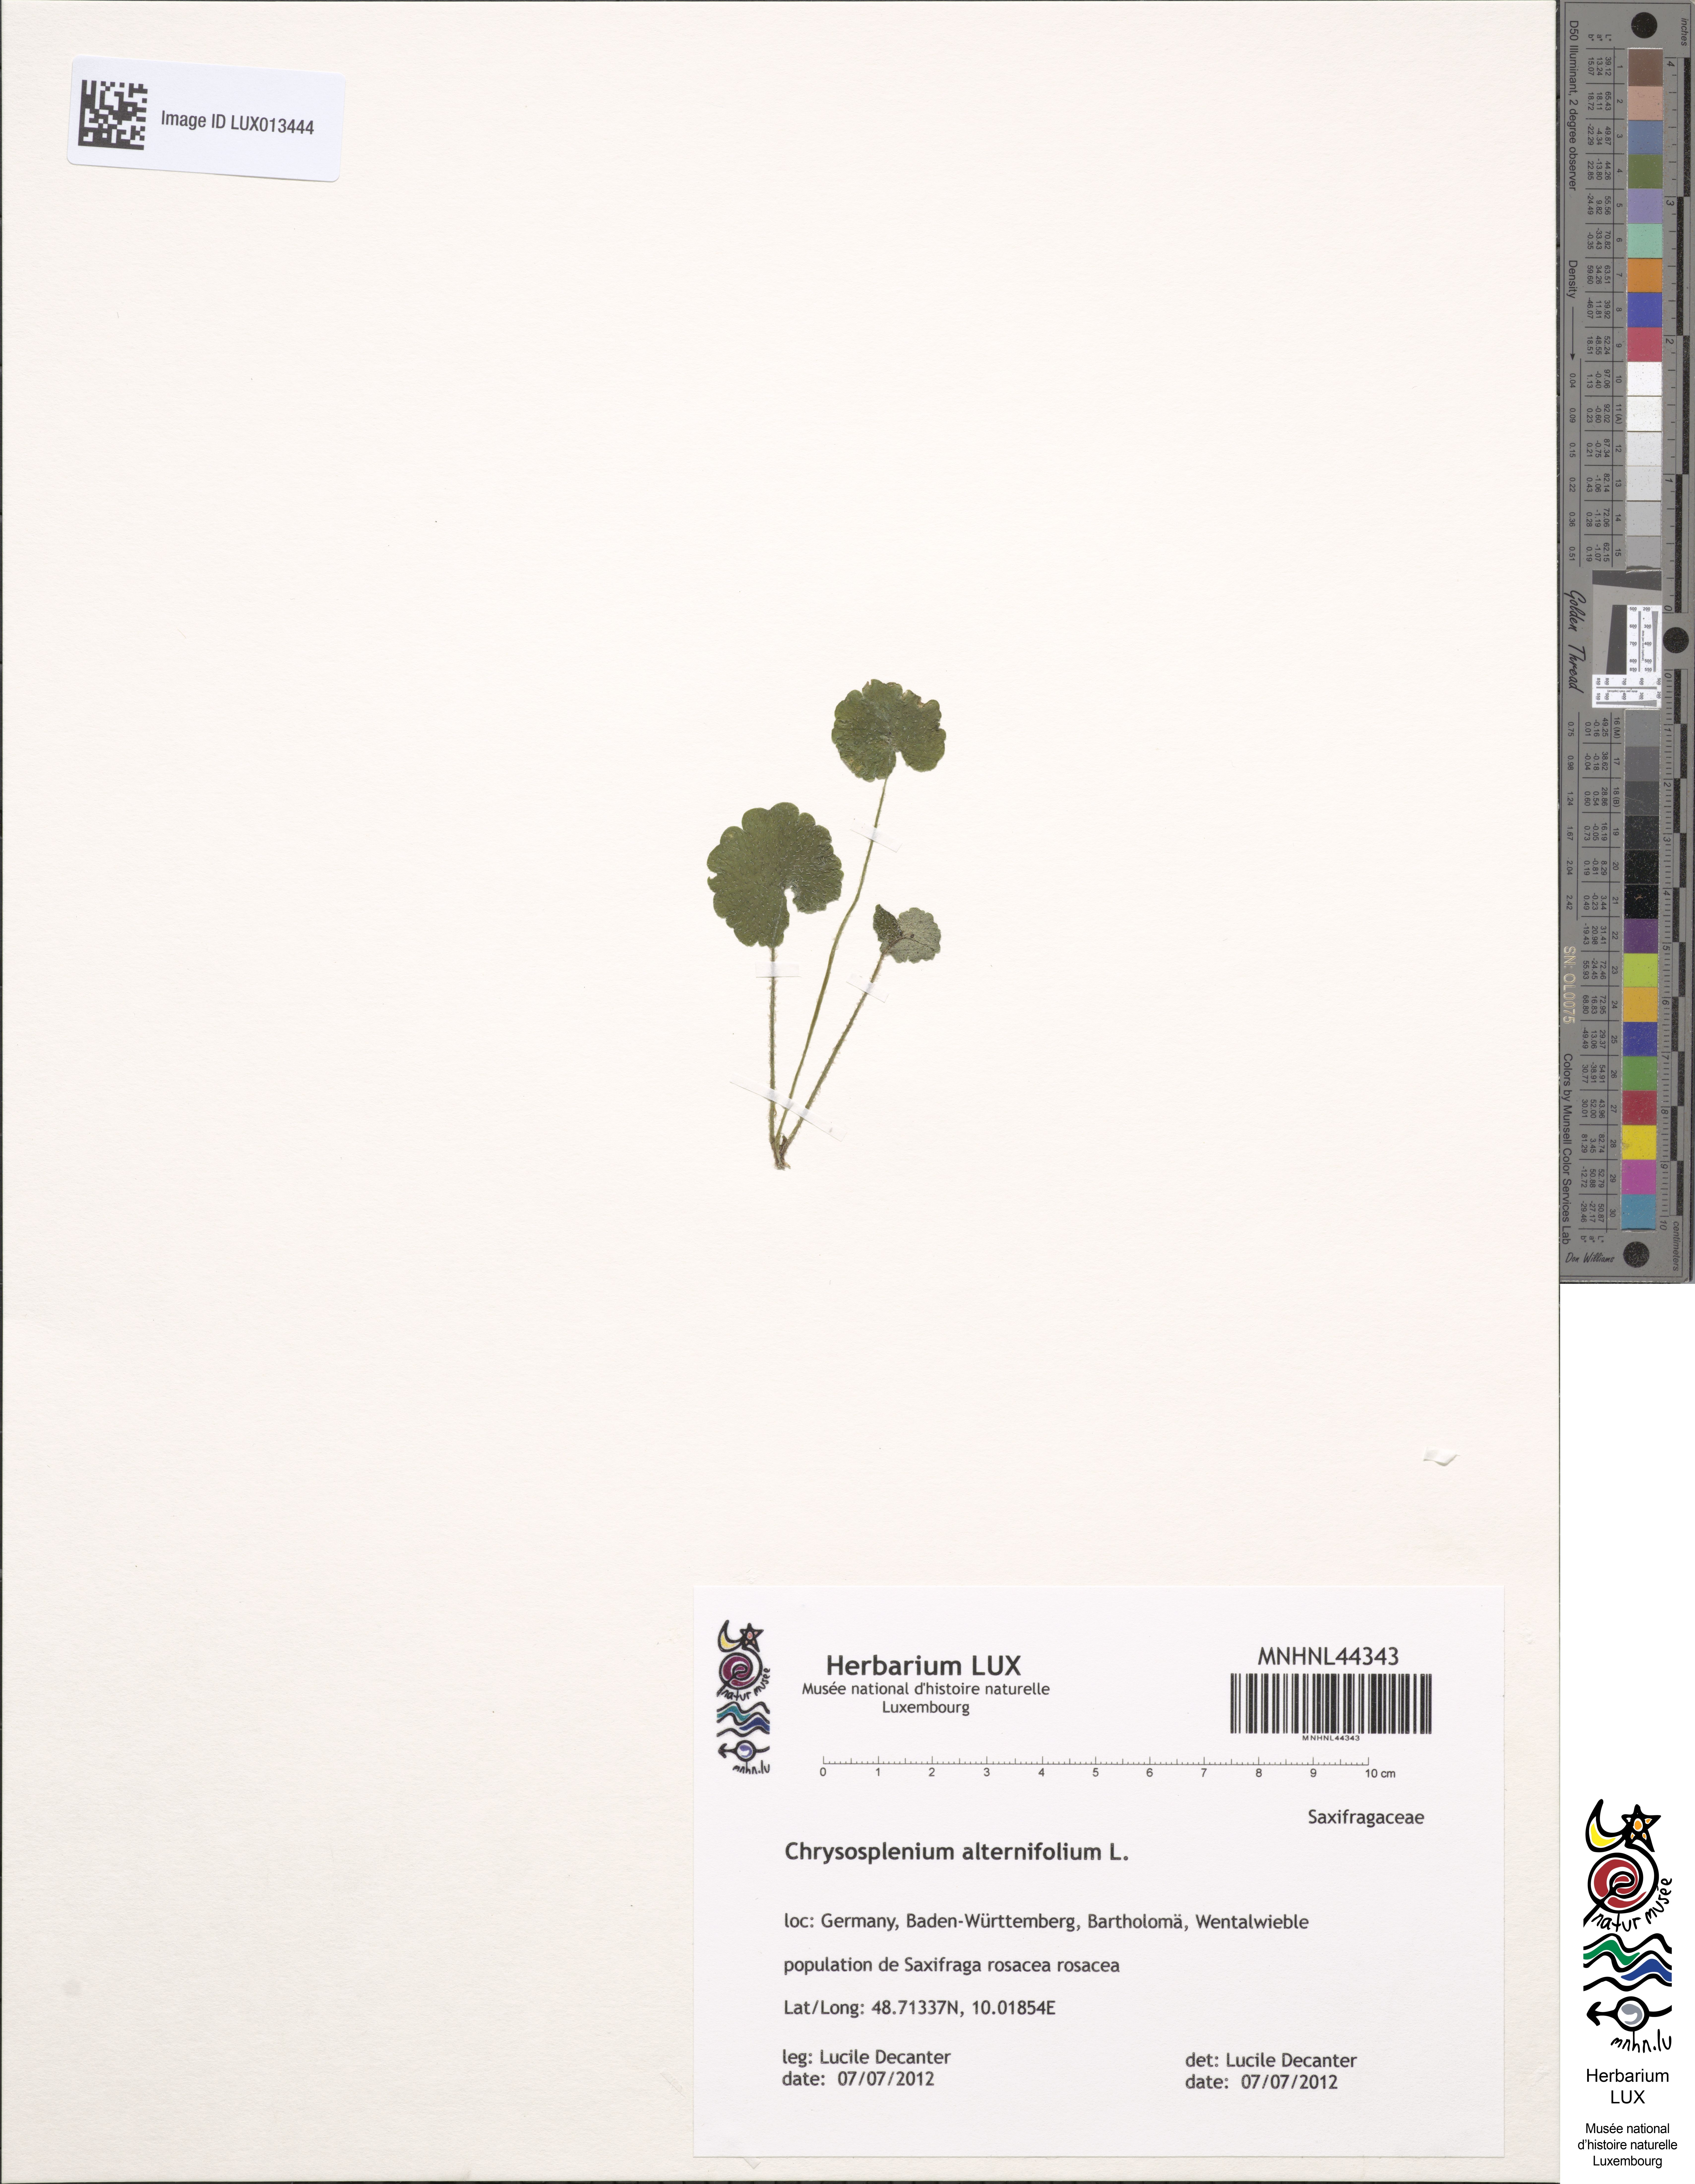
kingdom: Plantae
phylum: Tracheophyta
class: Magnoliopsida
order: Saxifragales
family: Saxifragaceae
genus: Chrysosplenium
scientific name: Chrysosplenium alternifolium
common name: Alternate-leaved golden-saxifrage
